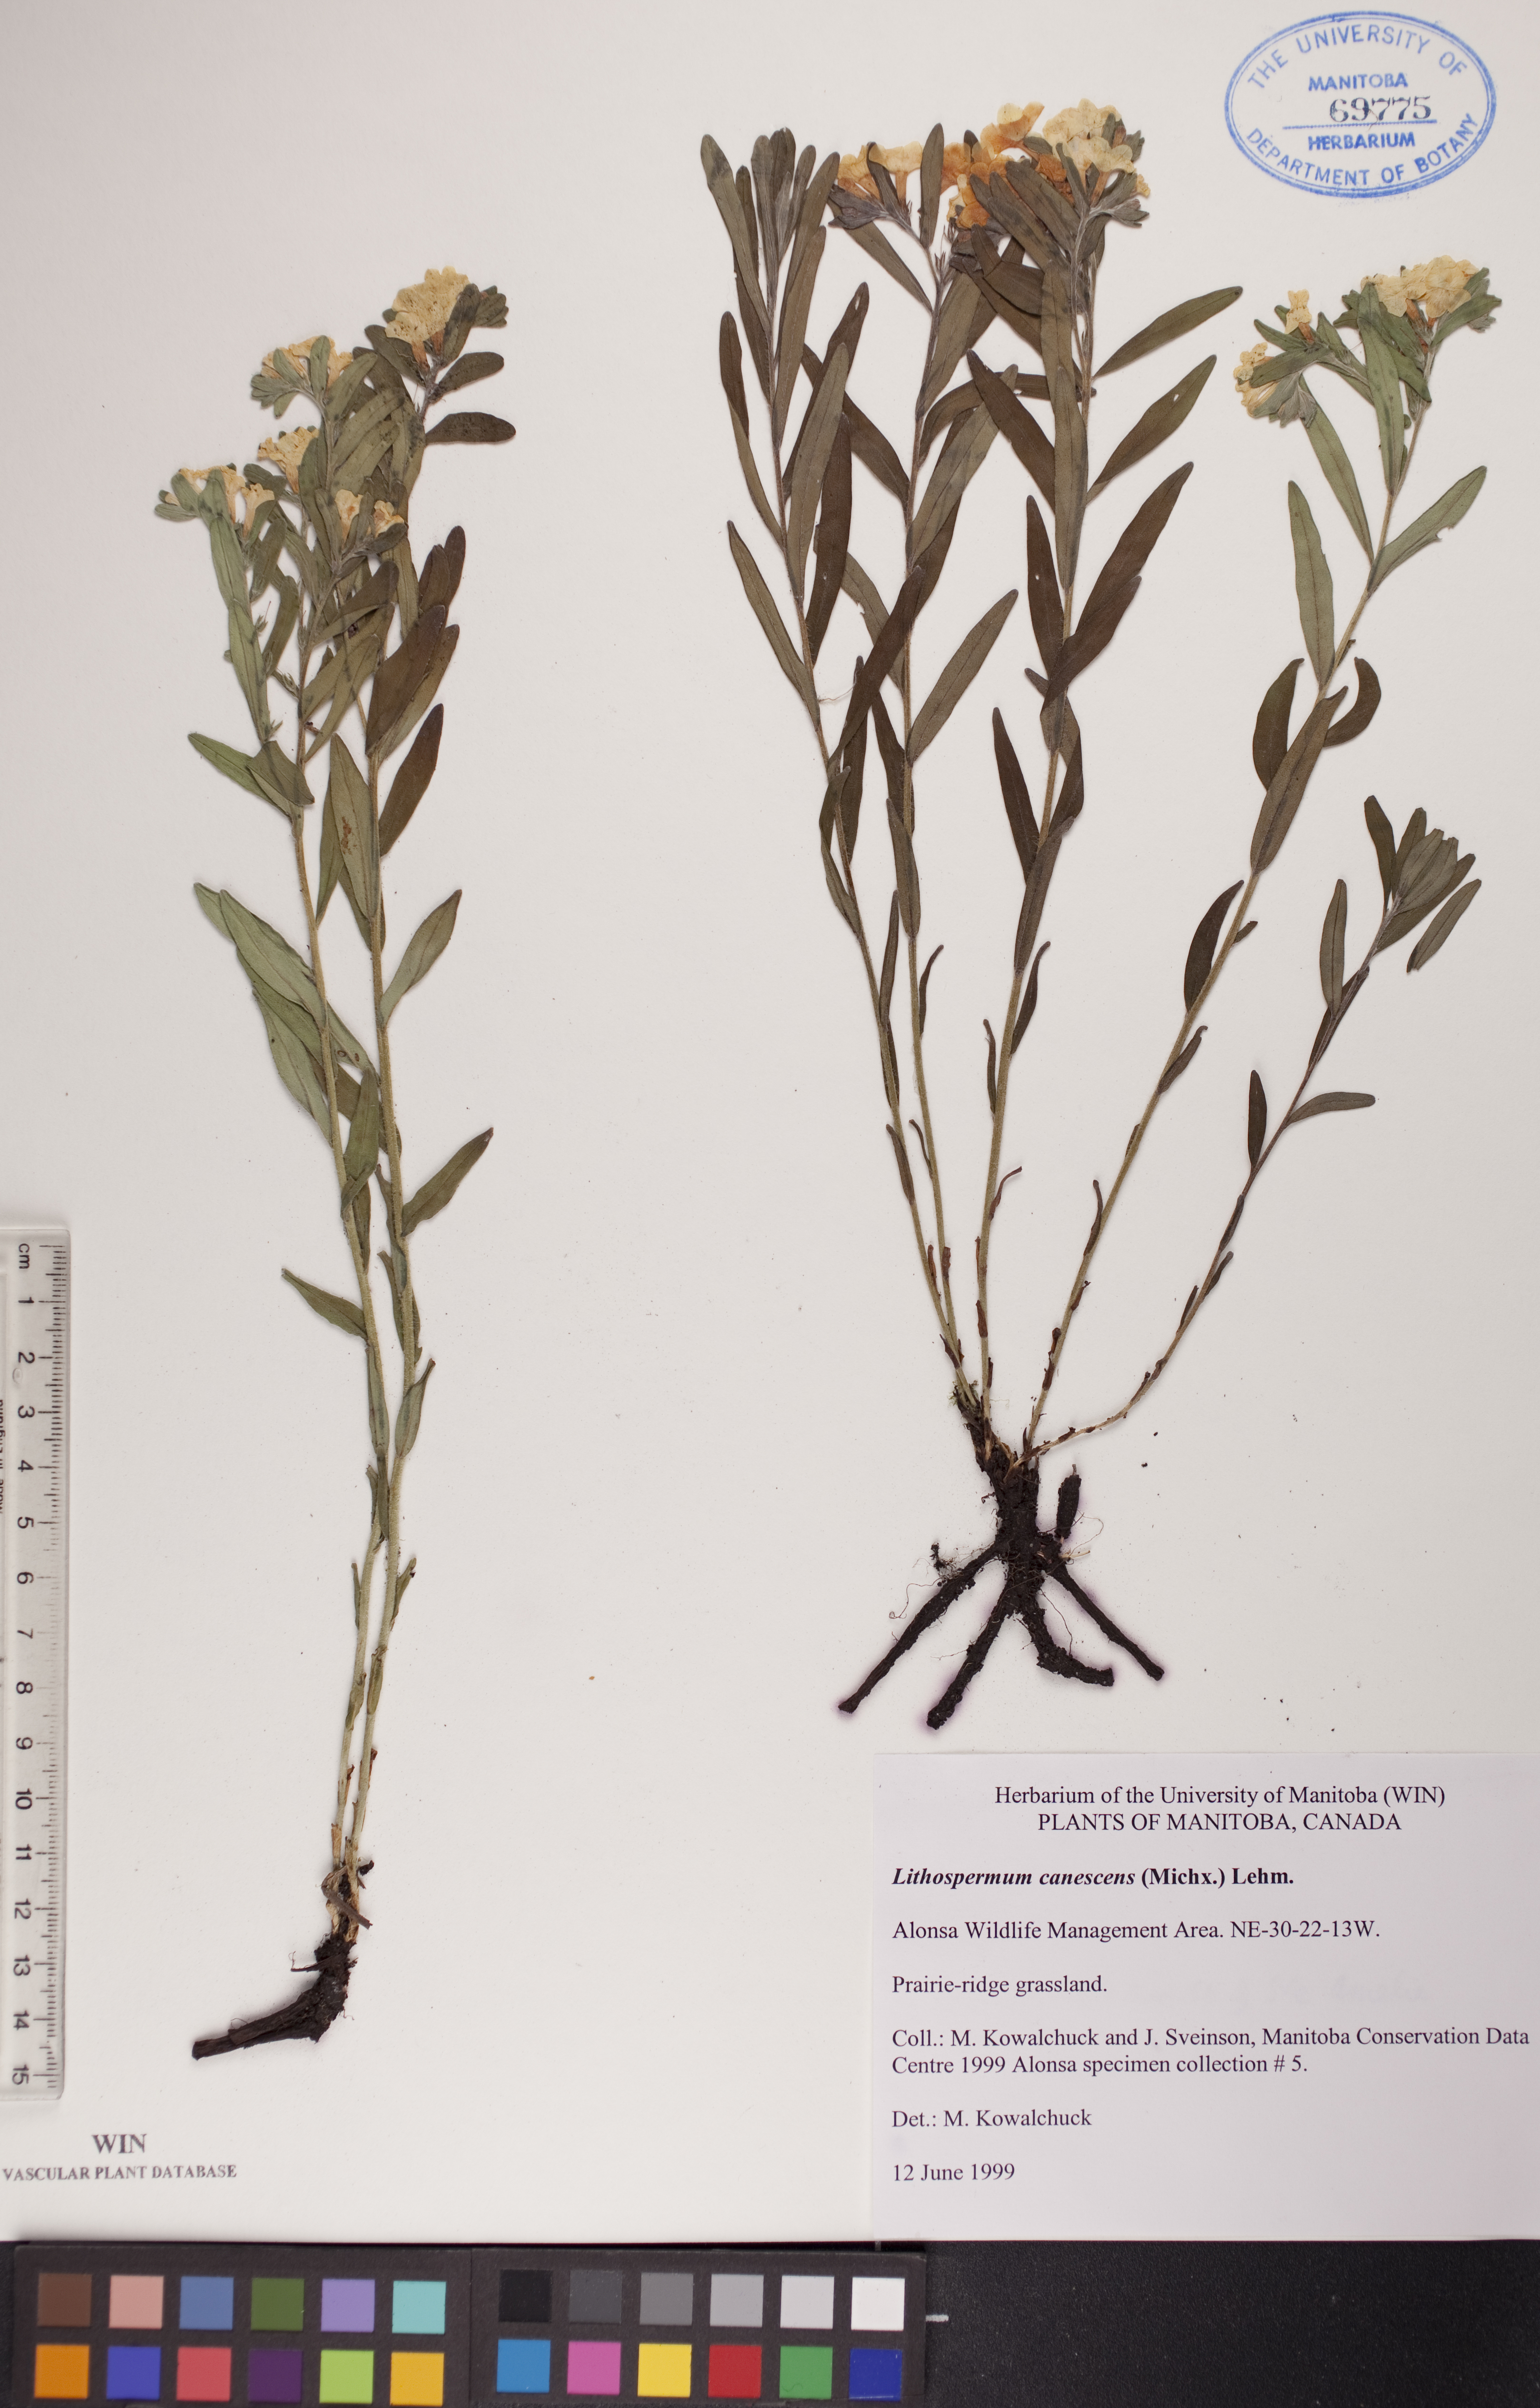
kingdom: Plantae
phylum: Tracheophyta
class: Magnoliopsida
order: Boraginales
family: Boraginaceae
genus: Lithospermum
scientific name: Lithospermum canescens
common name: Hoary puccoon
